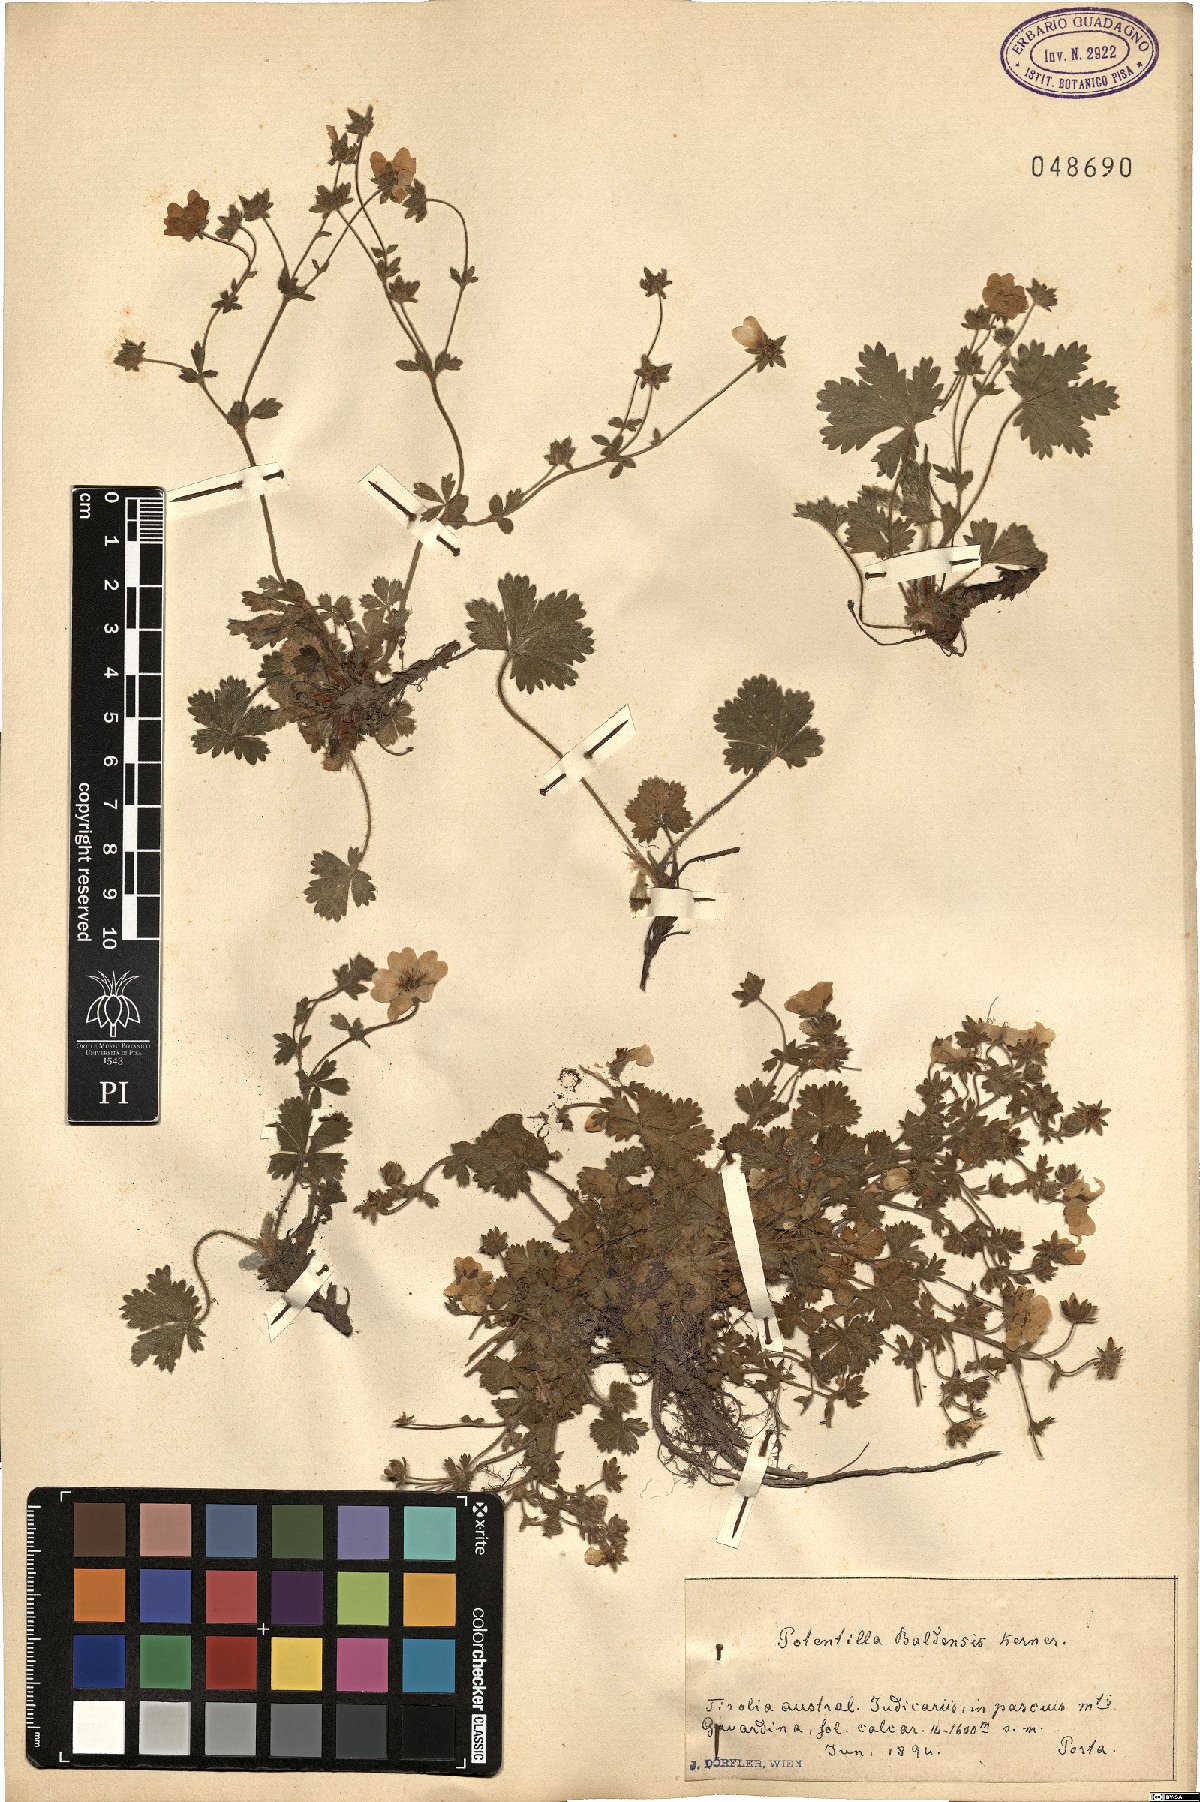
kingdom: Plantae
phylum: Tracheophyta
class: Magnoliopsida
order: Rosales
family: Rosaceae
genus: Potentilla
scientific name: Potentilla crantzii
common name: Alpine cinquefoil
